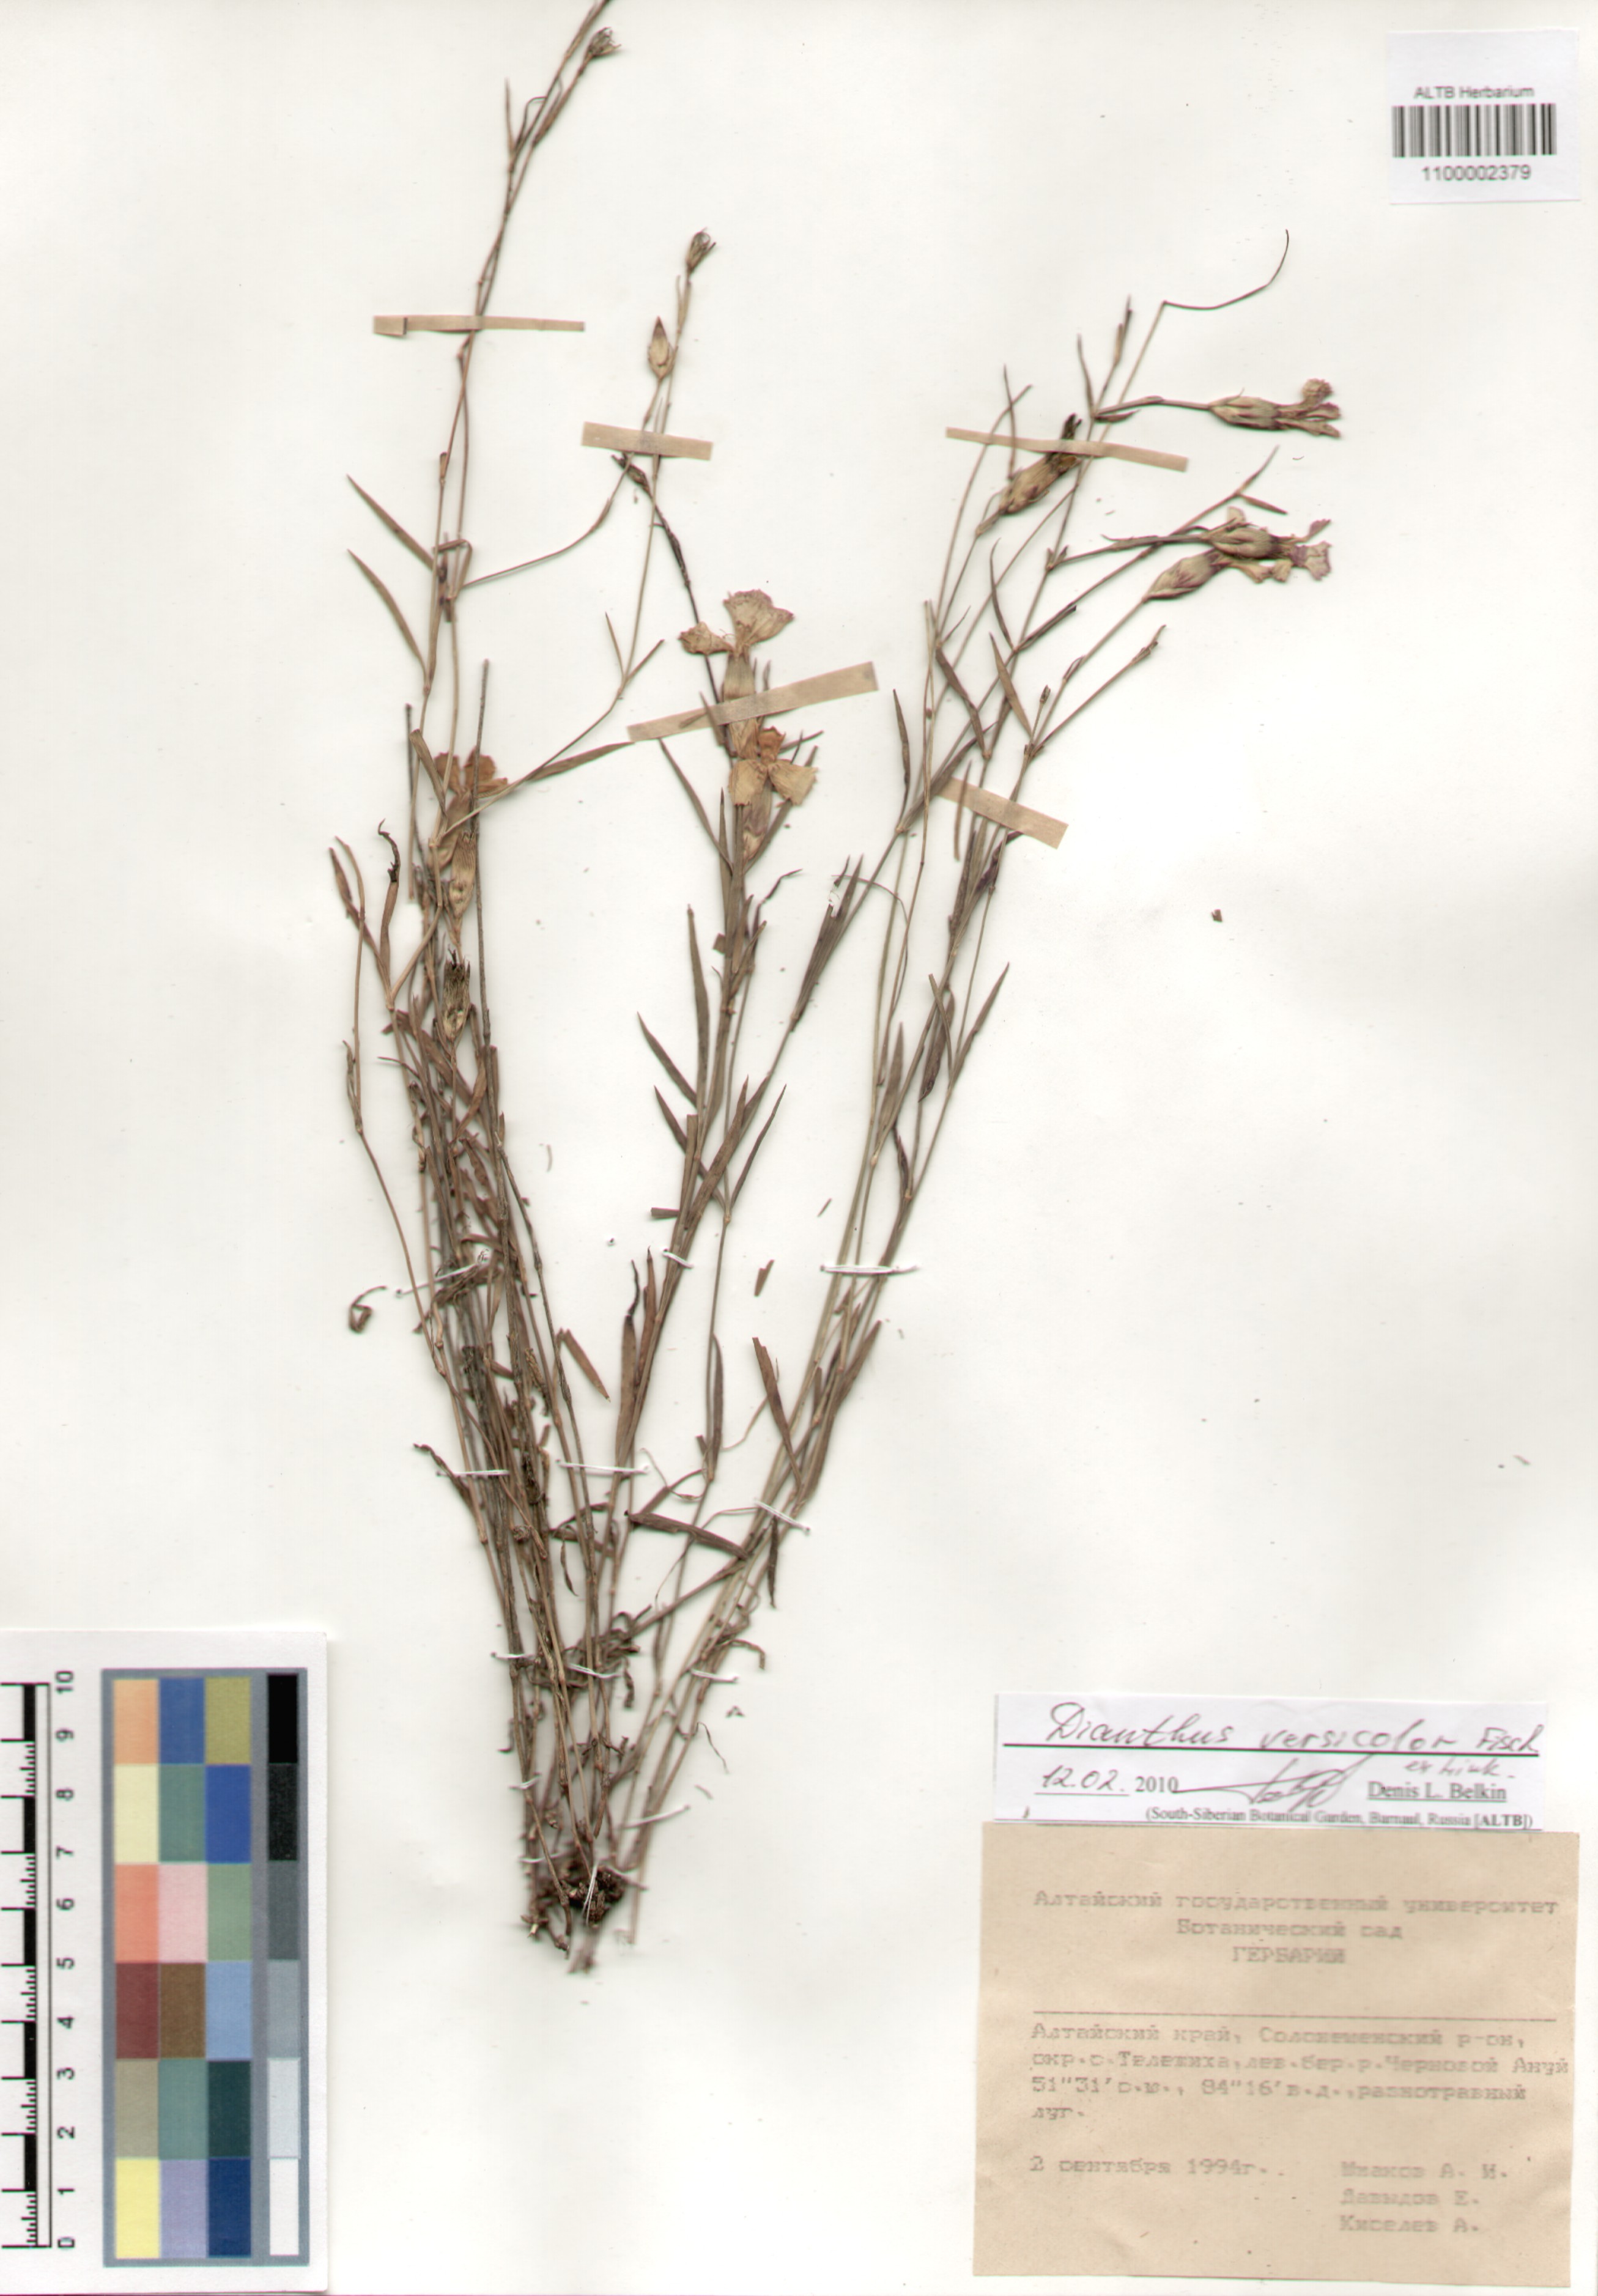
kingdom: Plantae
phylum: Tracheophyta
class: Magnoliopsida
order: Caryophyllales
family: Caryophyllaceae
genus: Dianthus
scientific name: Dianthus chinensis
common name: Rainbow pink
